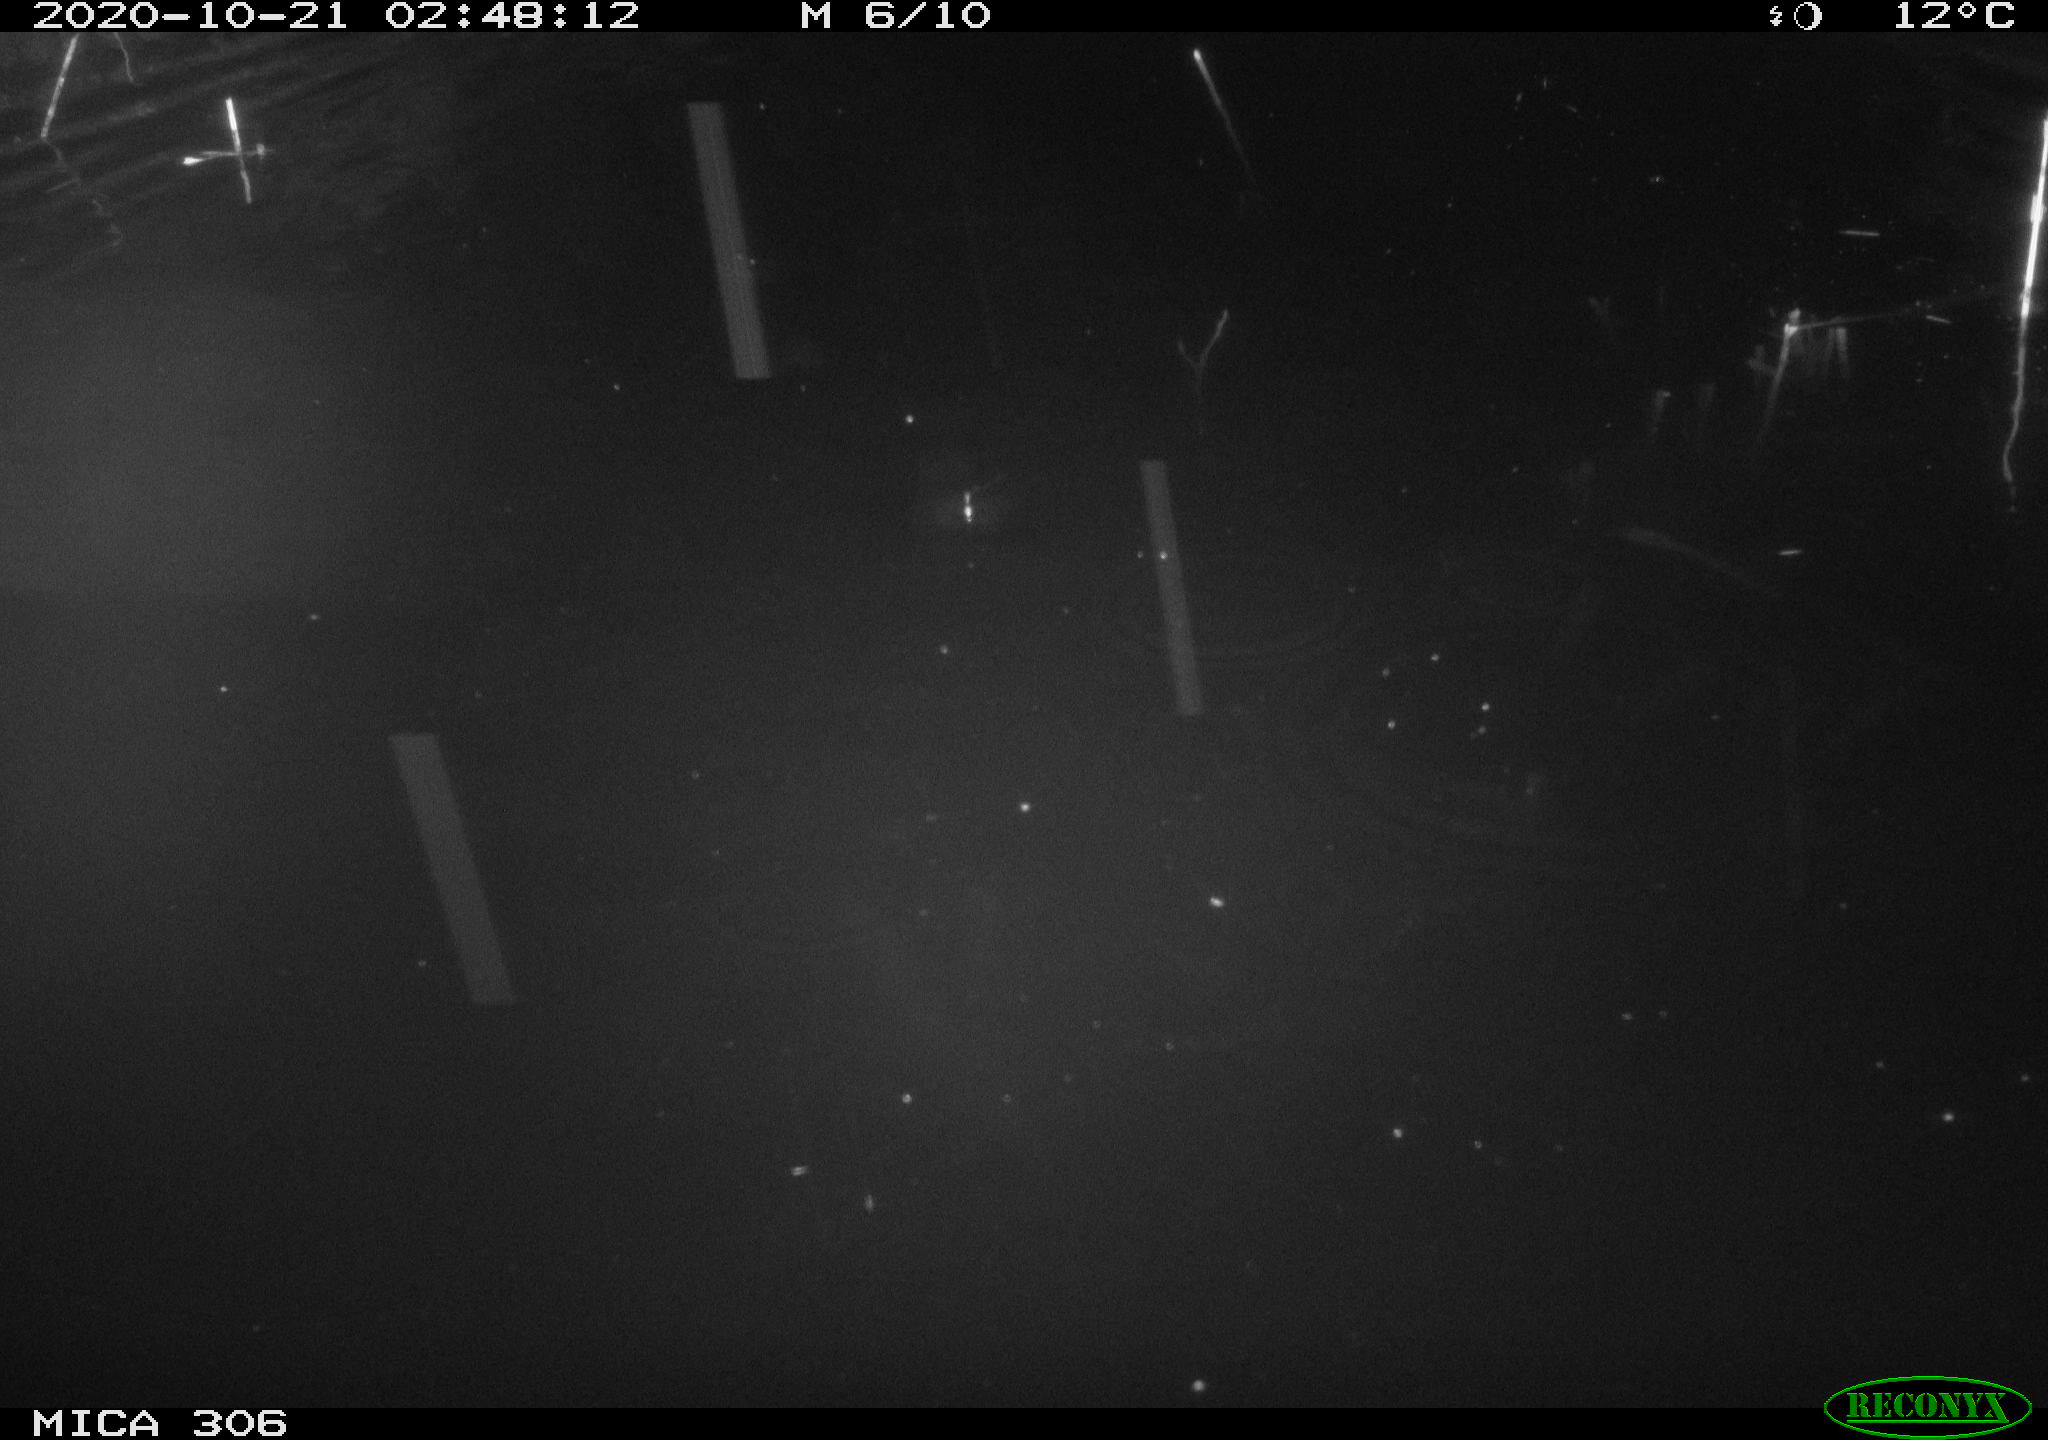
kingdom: Animalia
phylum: Chordata
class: Mammalia
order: Rodentia
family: Cricetidae
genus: Ondatra
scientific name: Ondatra zibethicus
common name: Muskrat
